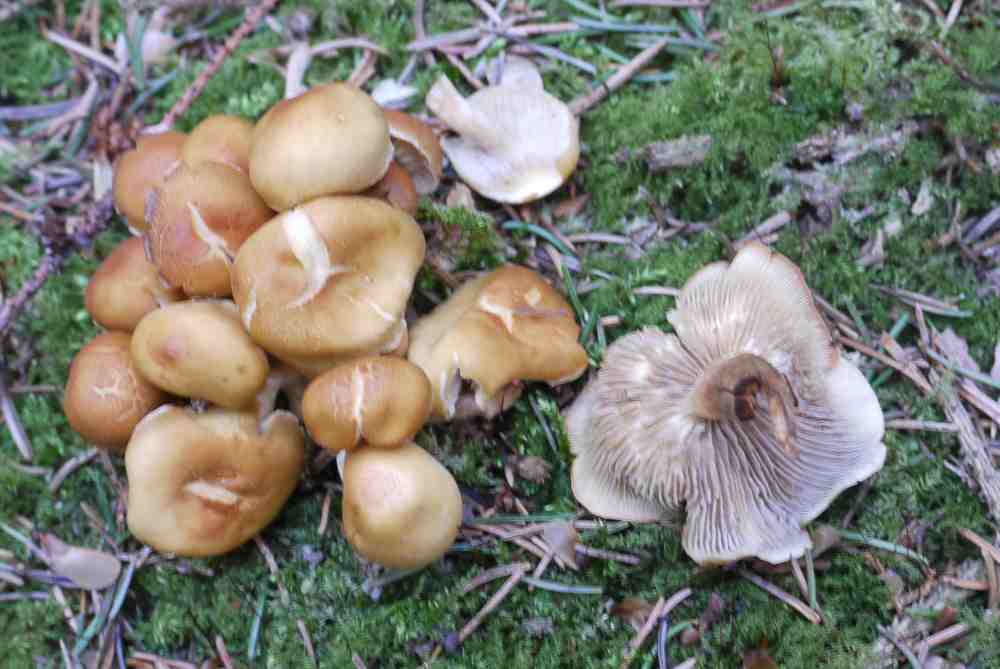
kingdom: Fungi
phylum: Basidiomycota
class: Agaricomycetes
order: Agaricales
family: Strophariaceae
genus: Hypholoma
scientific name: Hypholoma capnoides
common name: gran-svovlhat
